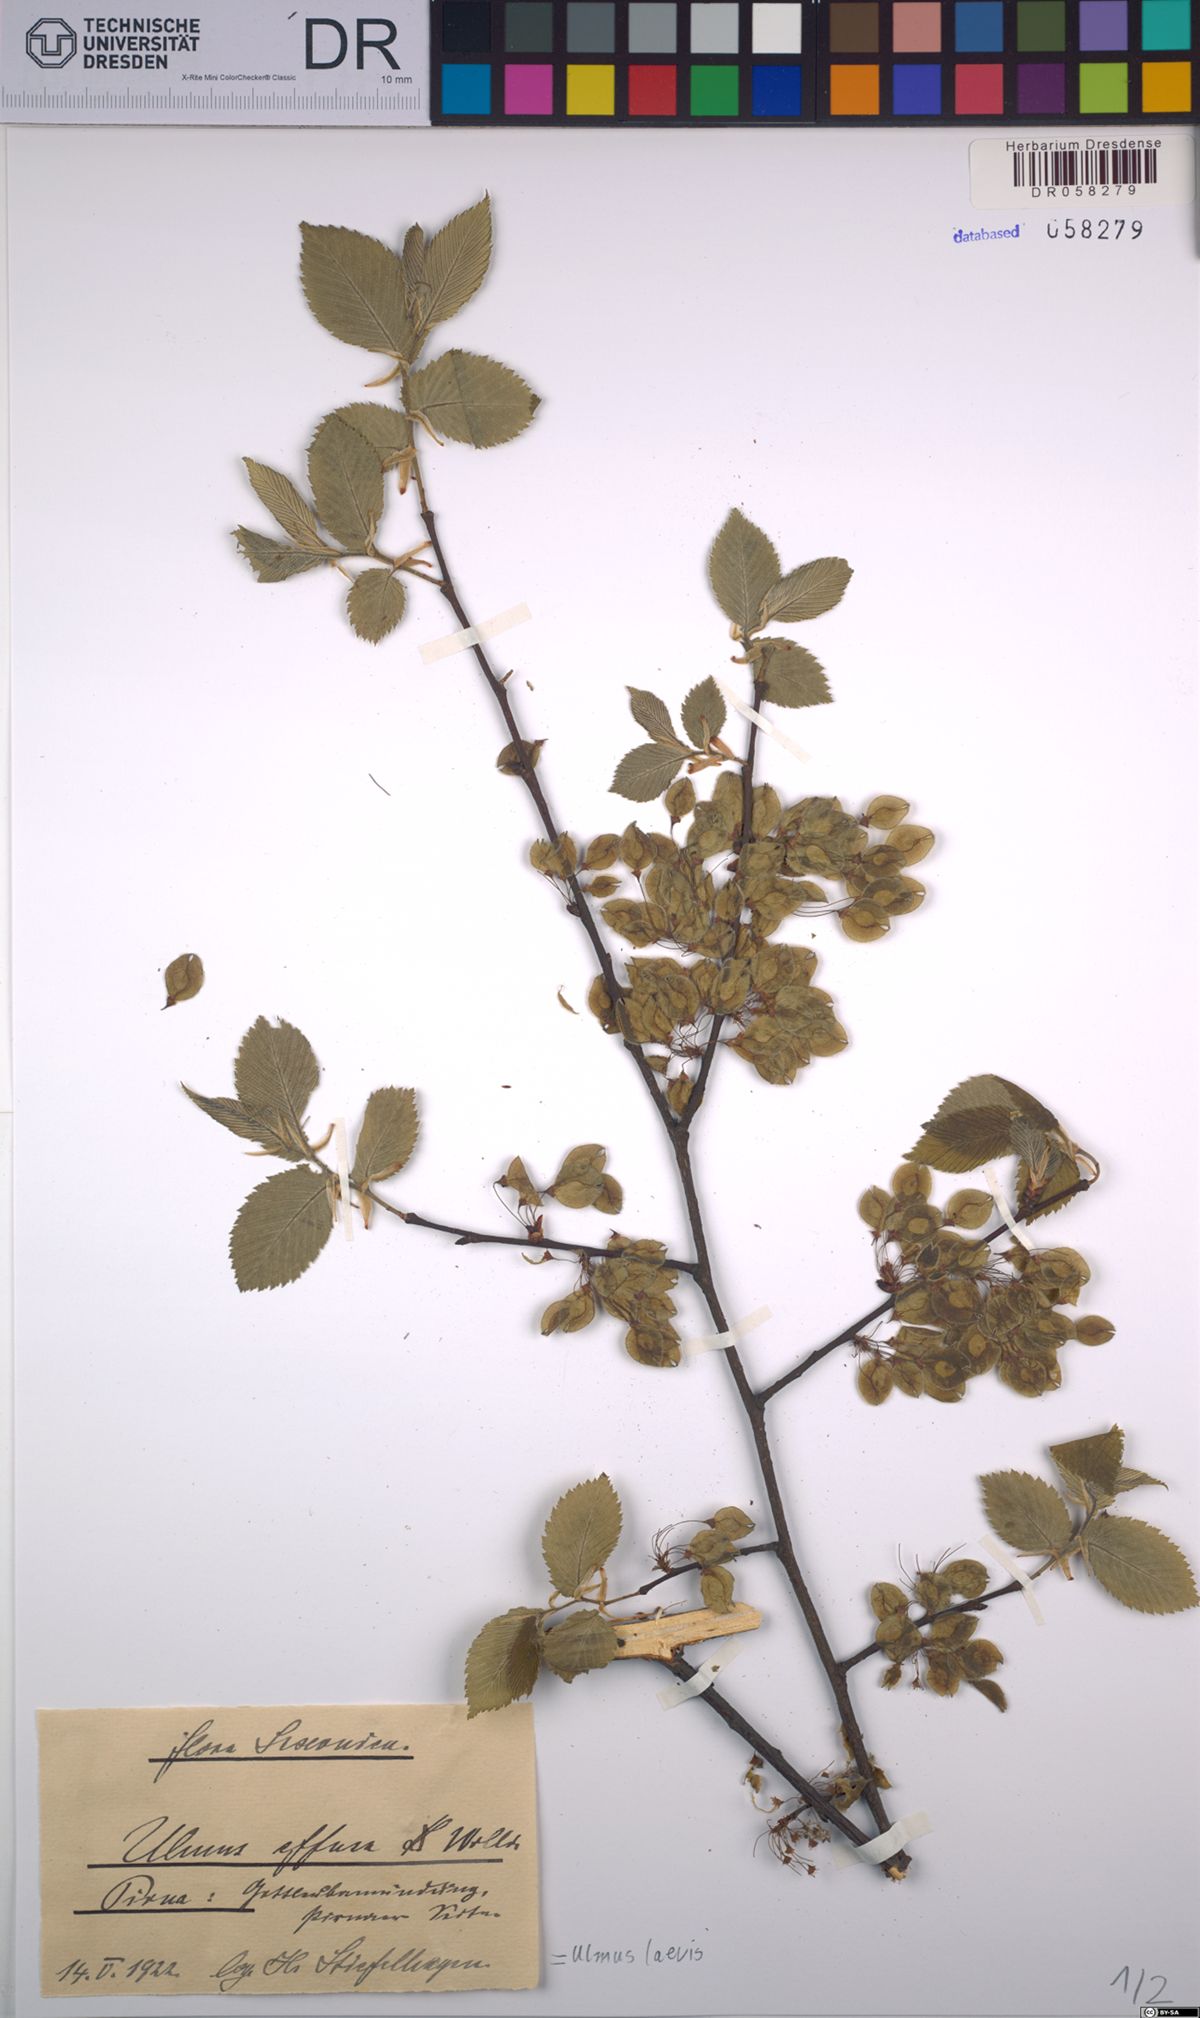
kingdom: Plantae
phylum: Tracheophyta
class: Magnoliopsida
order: Rosales
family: Ulmaceae
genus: Ulmus
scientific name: Ulmus laevis
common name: European white-elm
